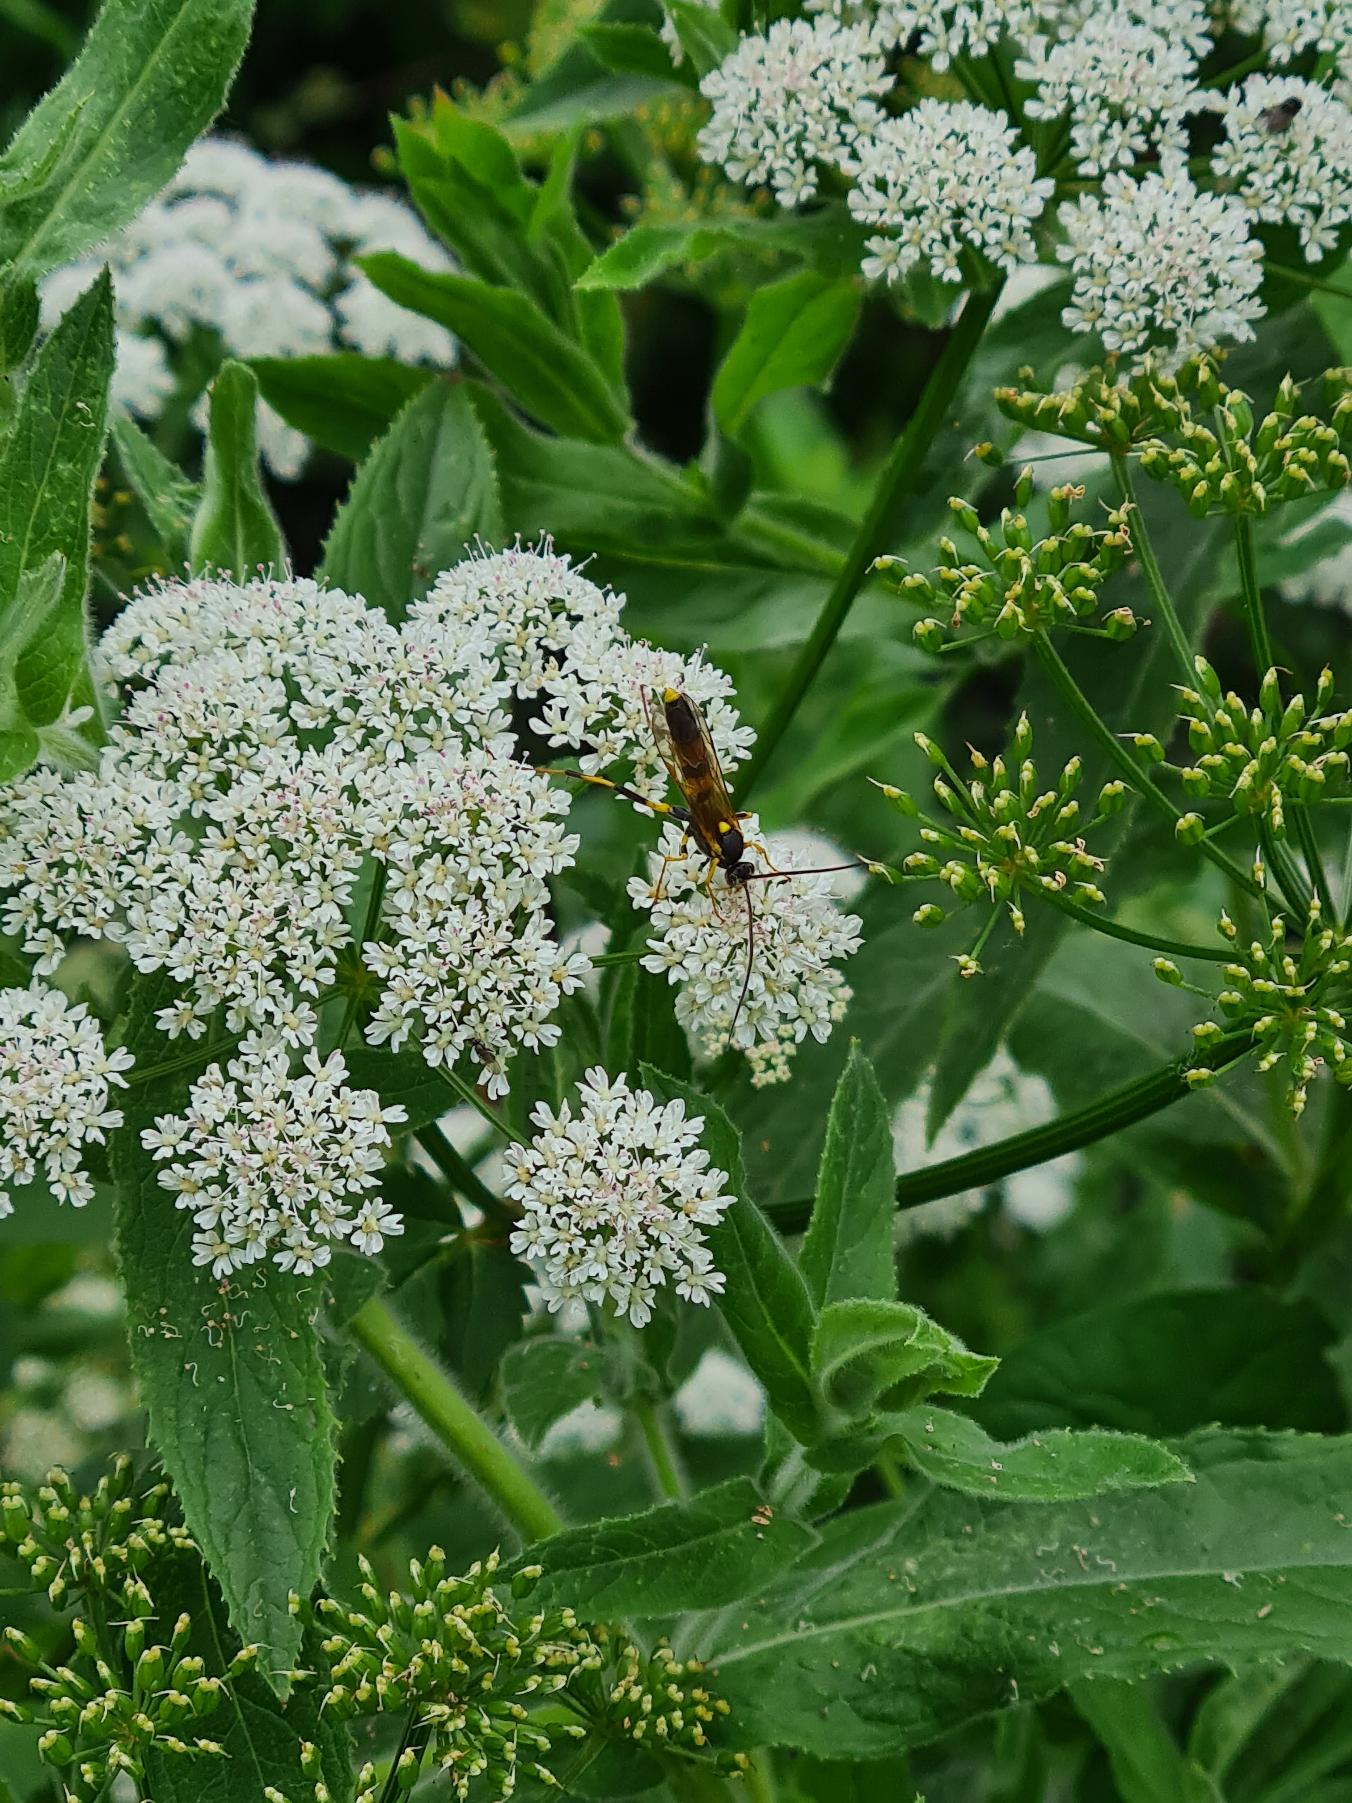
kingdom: Animalia
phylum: Arthropoda
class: Insecta
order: Hymenoptera
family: Ichneumonidae
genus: Amblyteles
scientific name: Amblyteles armatorius
